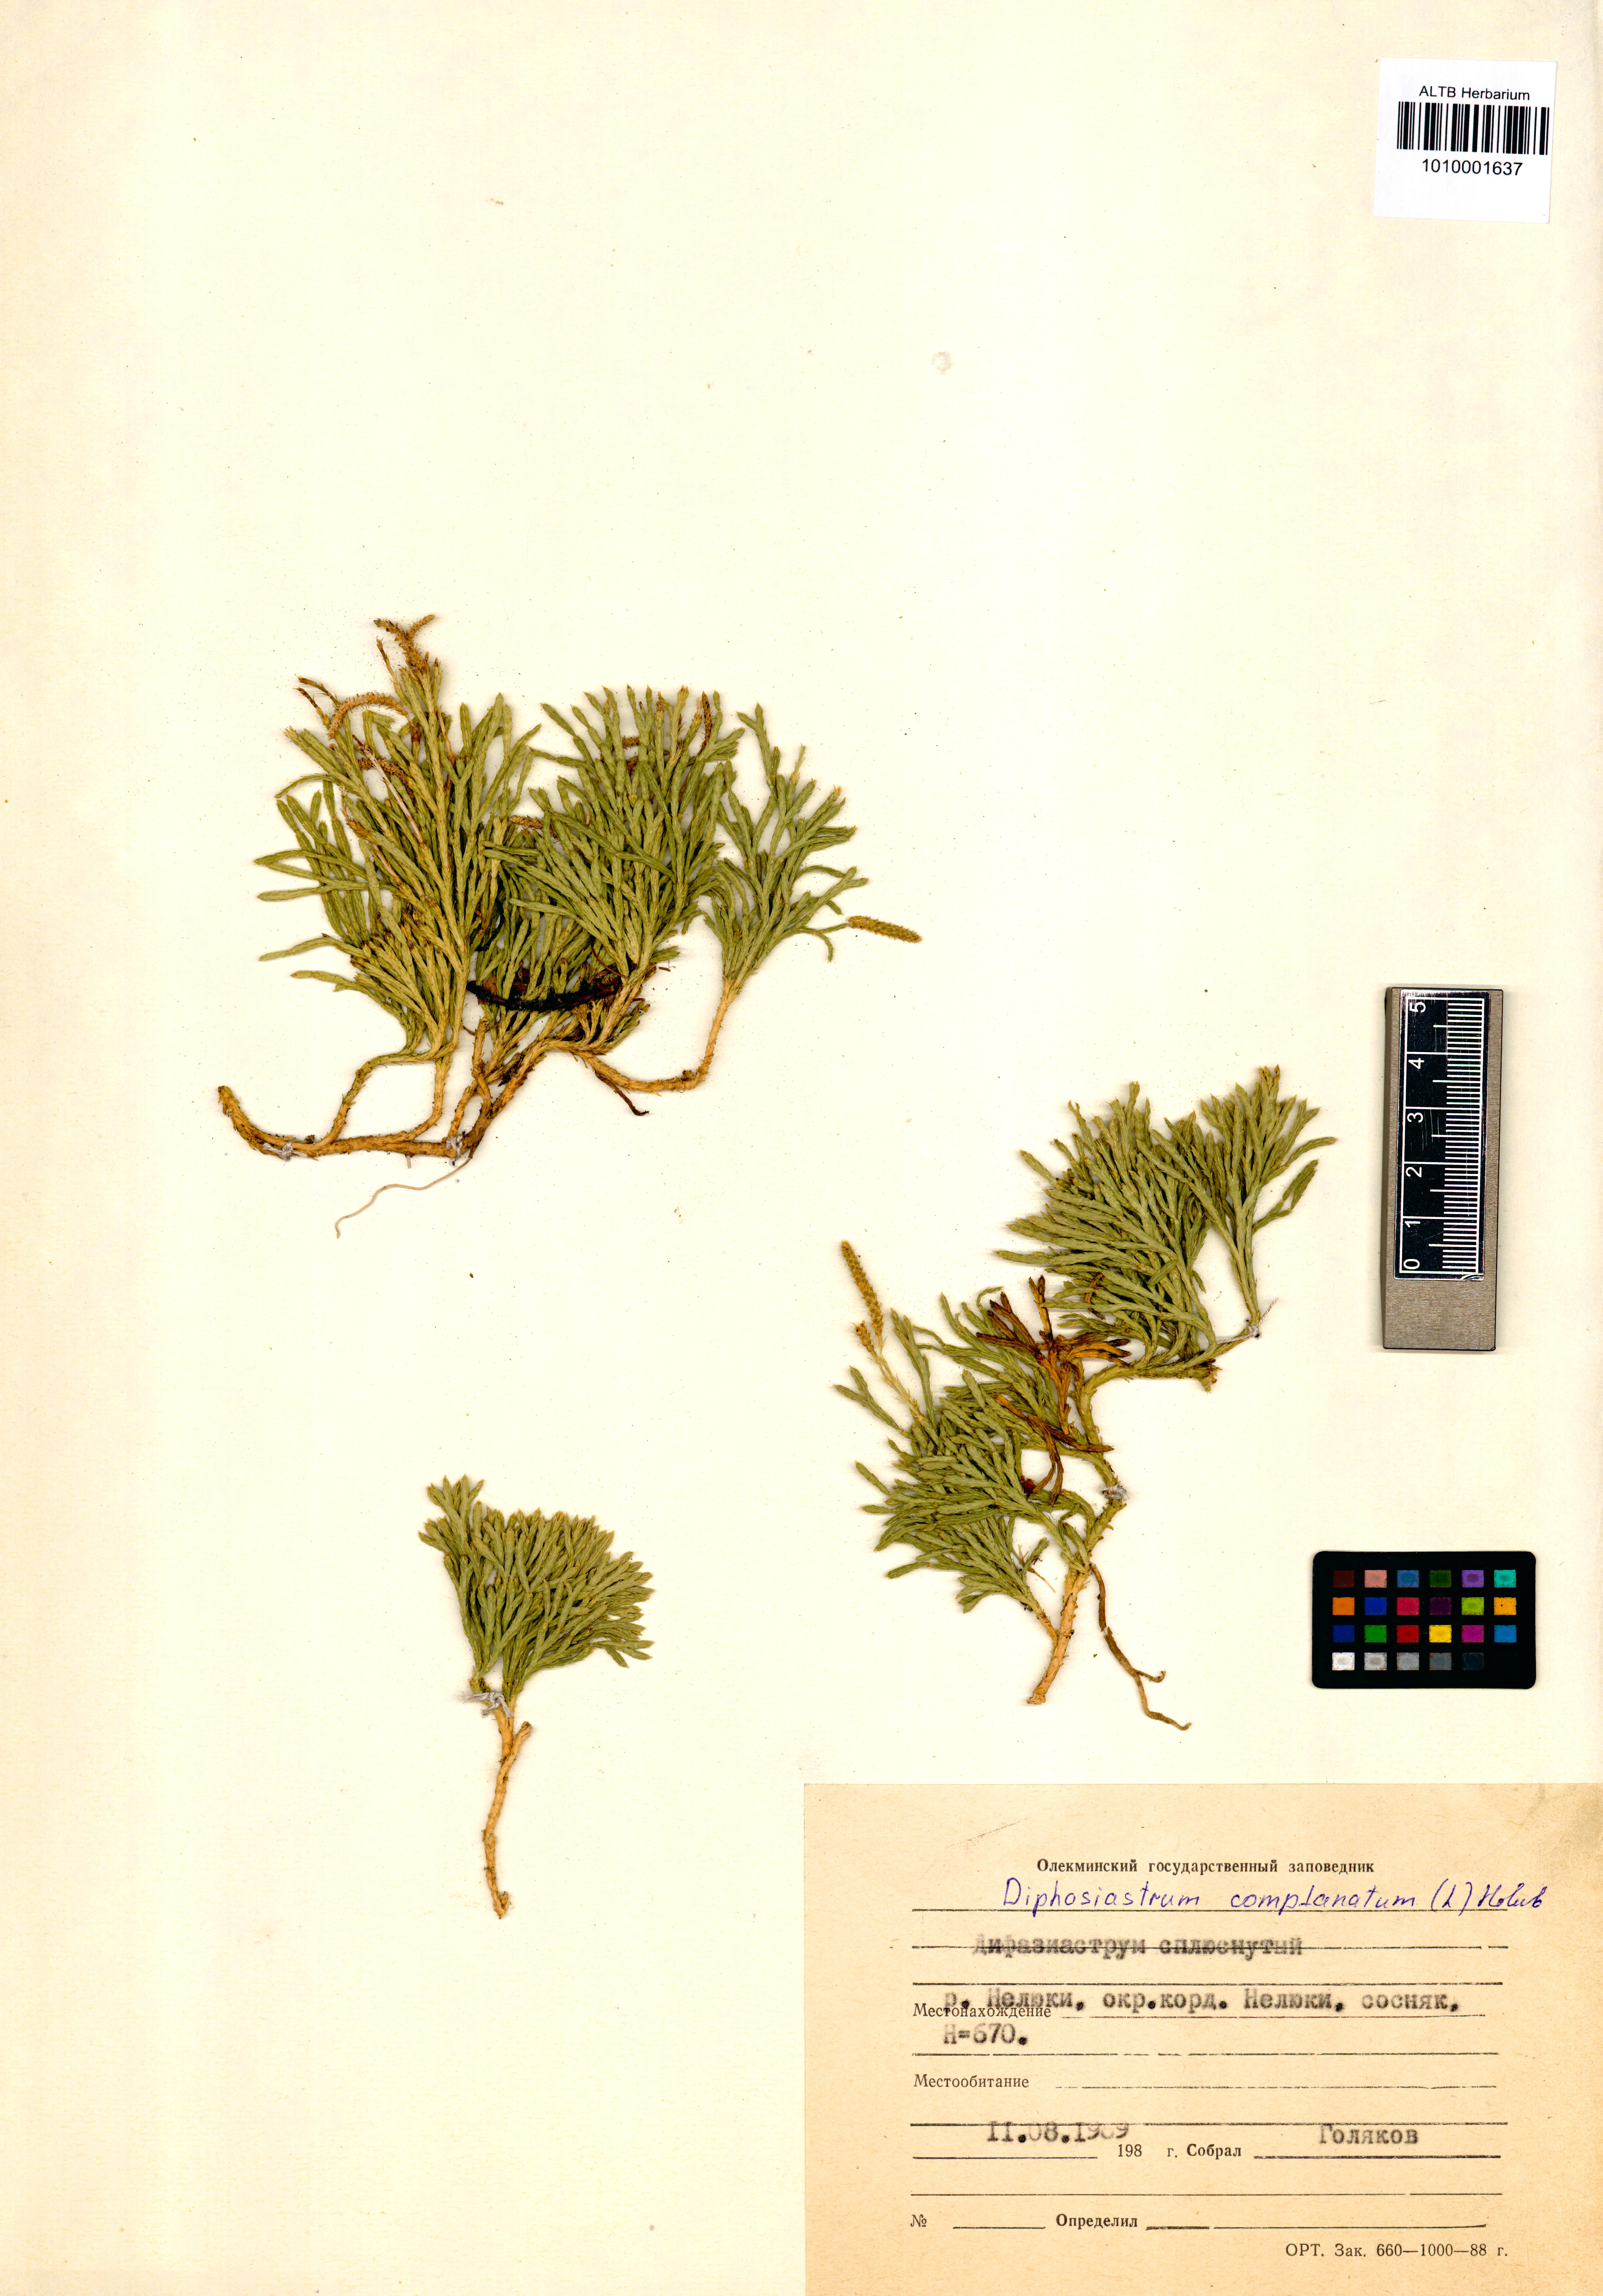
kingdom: Plantae
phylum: Tracheophyta
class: Lycopodiopsida
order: Lycopodiales
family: Lycopodiaceae
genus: Diphasiastrum
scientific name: Diphasiastrum complanatum
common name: Northern running-pine
